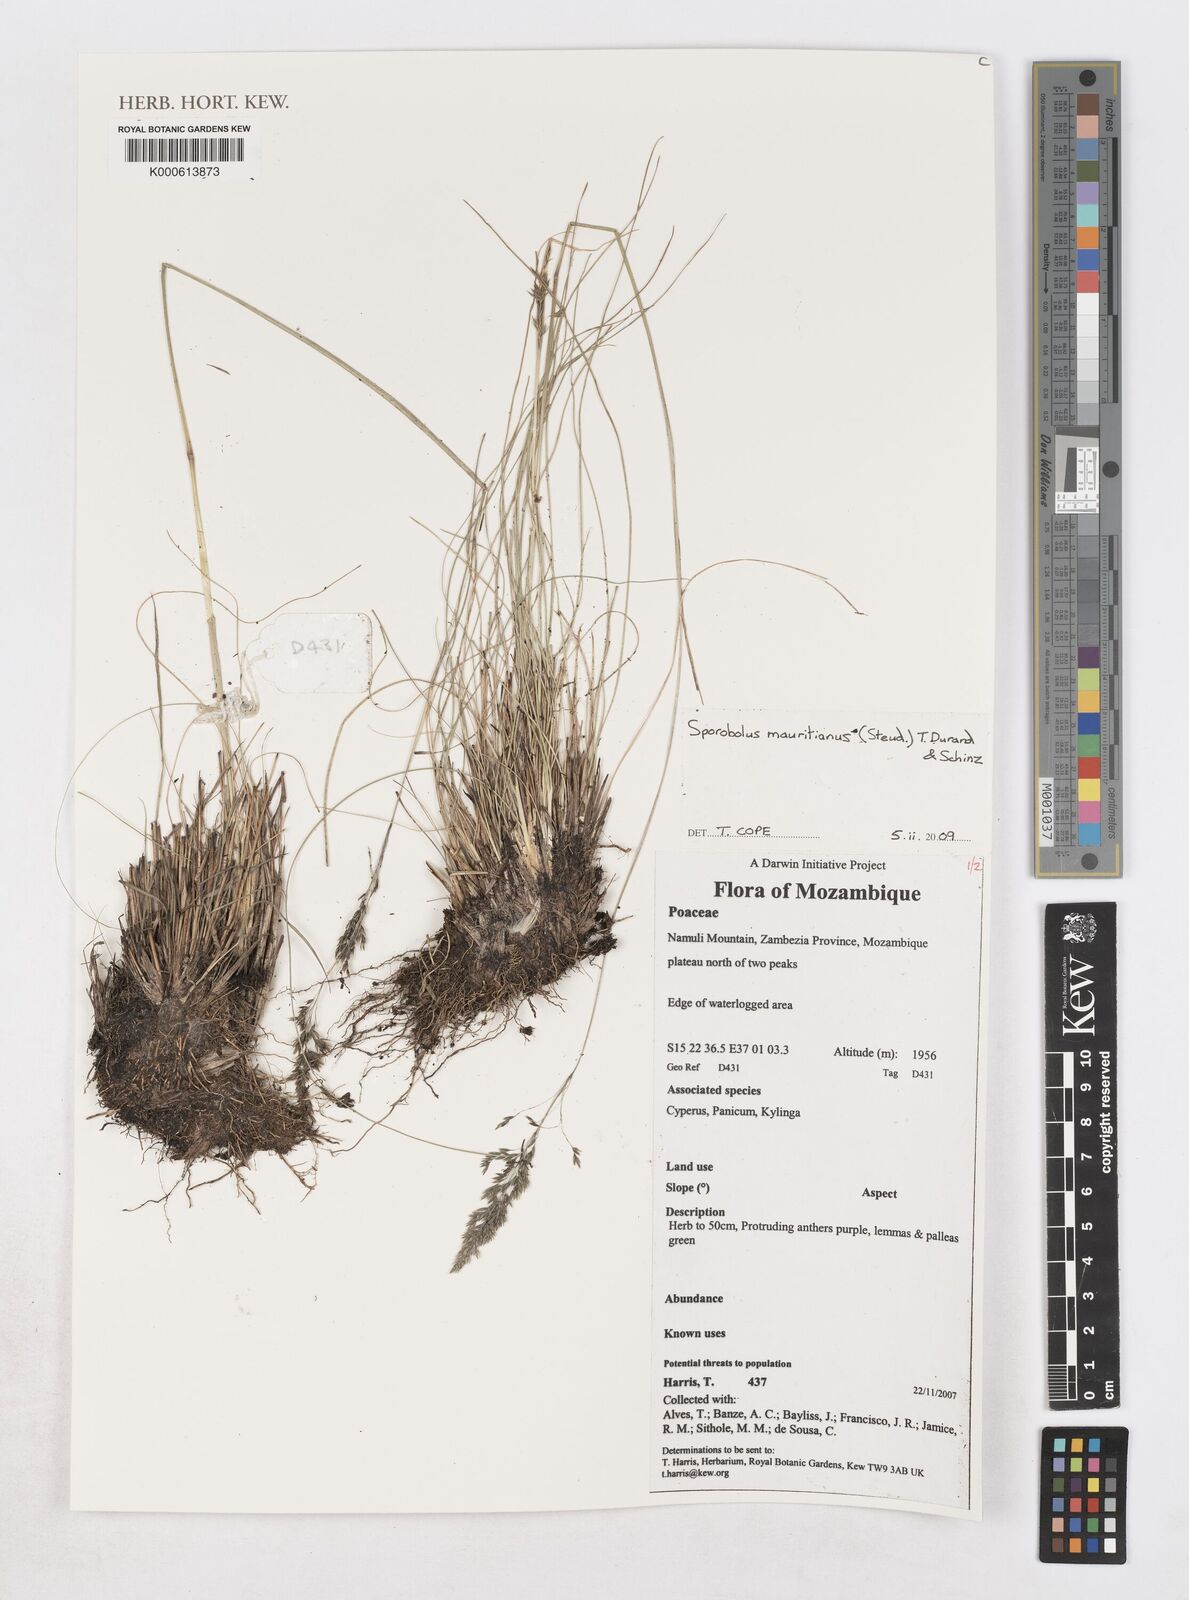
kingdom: Plantae
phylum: Tracheophyta
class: Liliopsida
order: Poales
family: Poaceae
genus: Sporobolus
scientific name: Sporobolus
